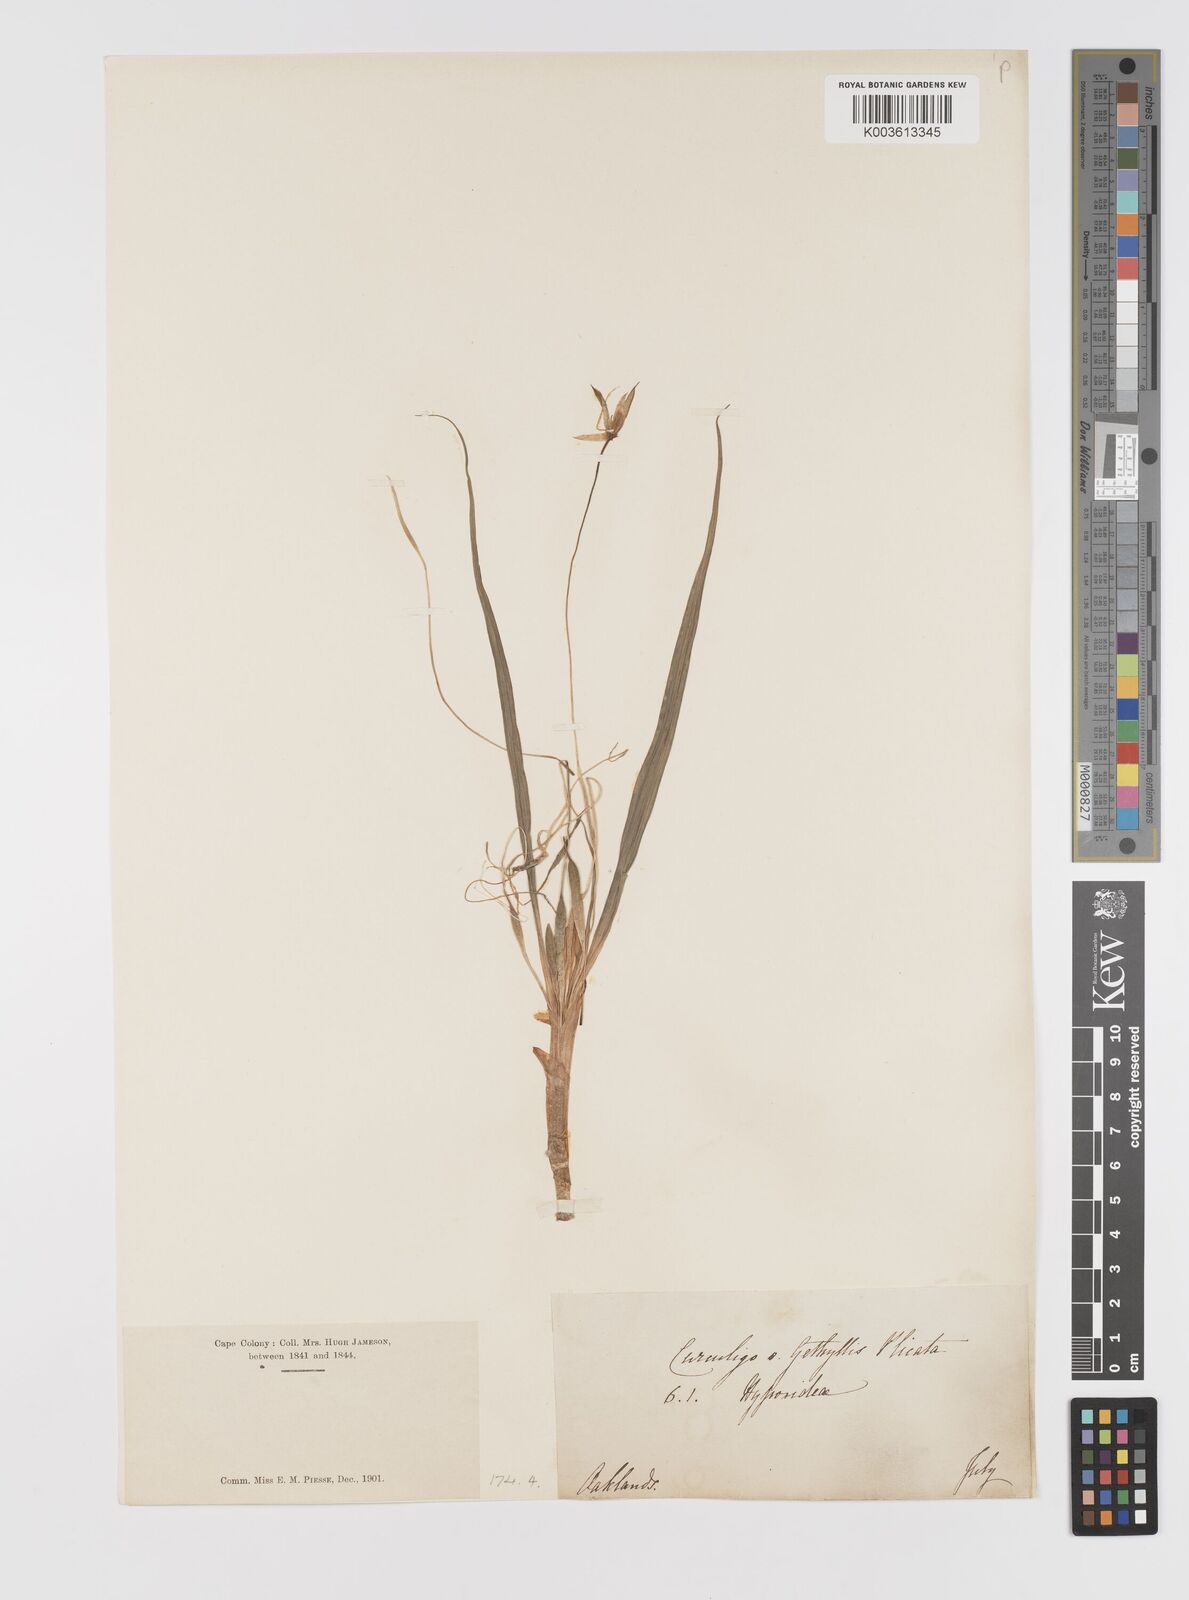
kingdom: Plantae
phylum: Tracheophyta
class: Liliopsida
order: Asparagales
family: Hypoxidaceae
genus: Empodium
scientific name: Empodium plicatum
